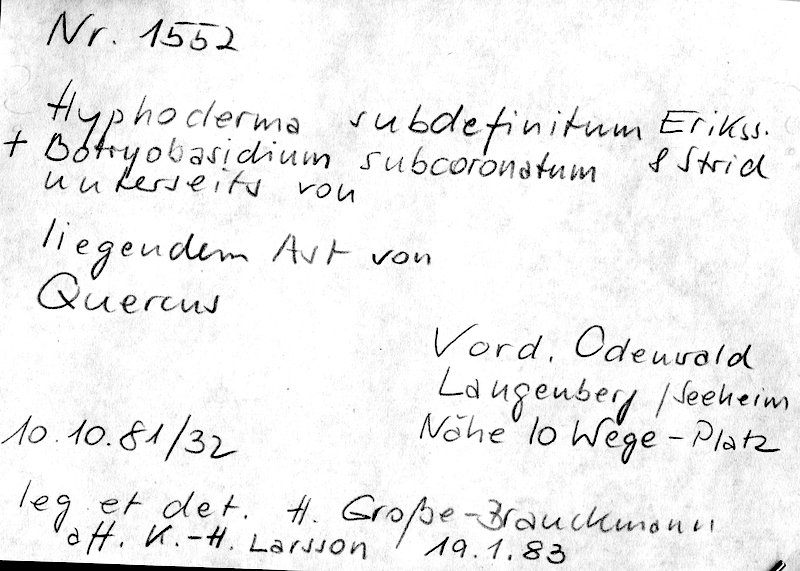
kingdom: Plantae
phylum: Tracheophyta
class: Magnoliopsida
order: Fagales
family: Fagaceae
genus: Quercus
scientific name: Quercus
